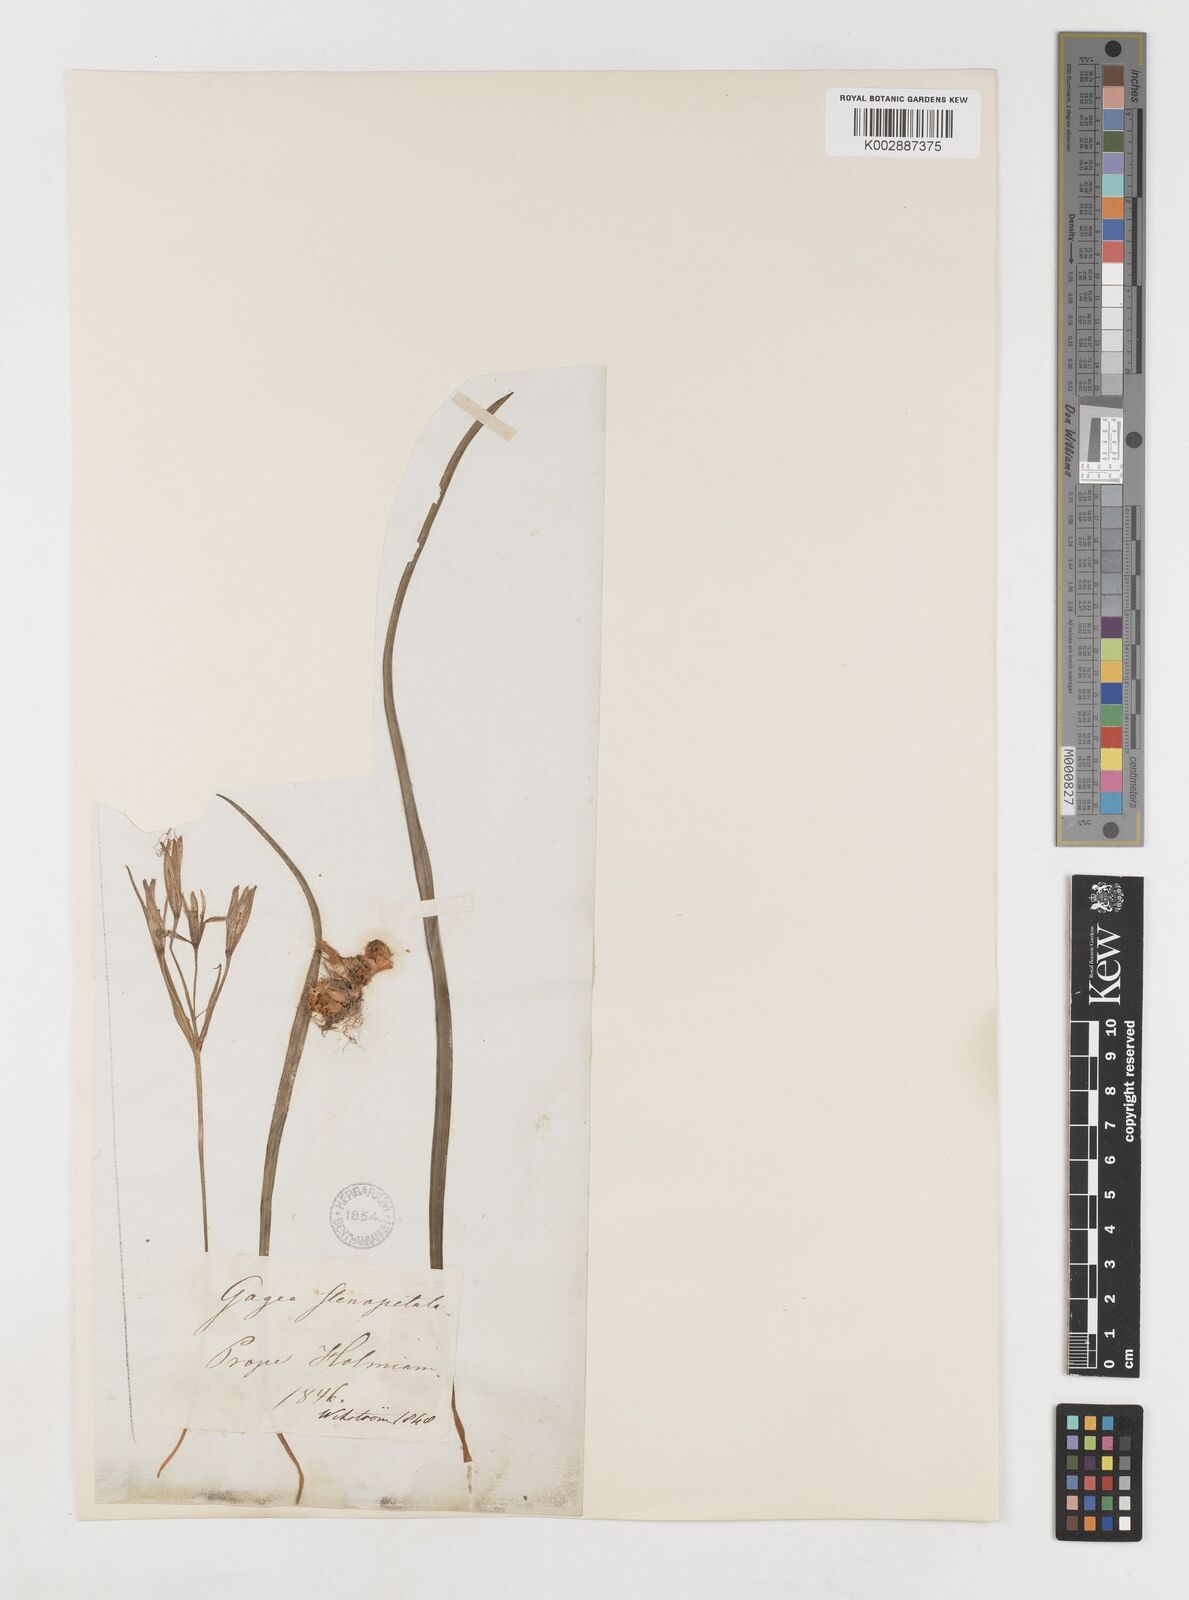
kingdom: Plantae
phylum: Tracheophyta
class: Liliopsida
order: Liliales
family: Liliaceae
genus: Gagea
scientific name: Gagea pratensis
